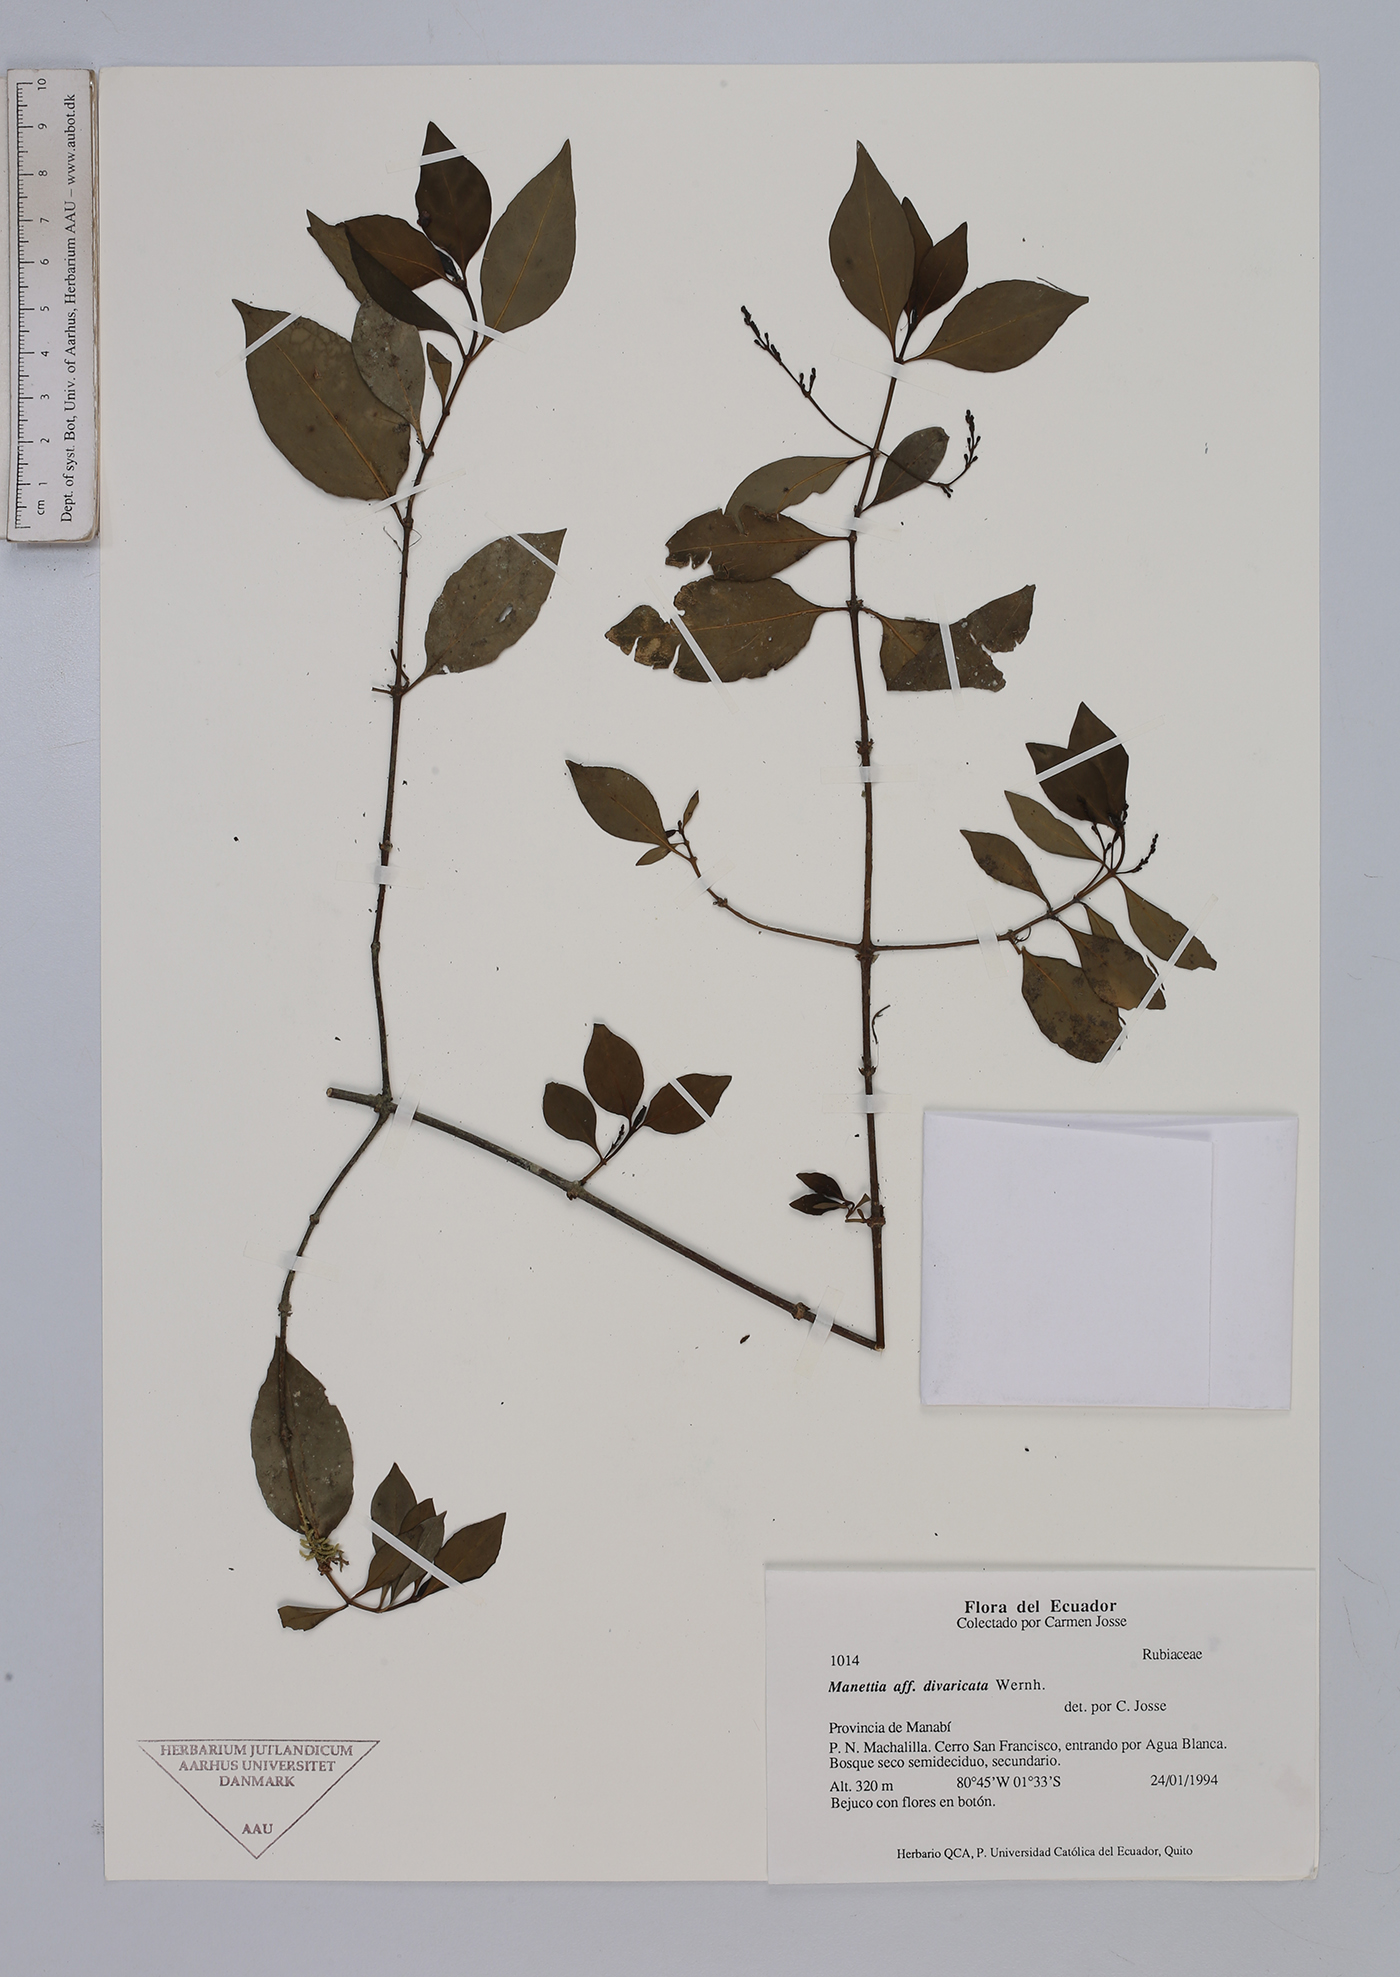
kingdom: Plantae
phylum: Tracheophyta
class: Magnoliopsida
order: Gentianales
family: Rubiaceae
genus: Manettia
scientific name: Manettia divaricata
